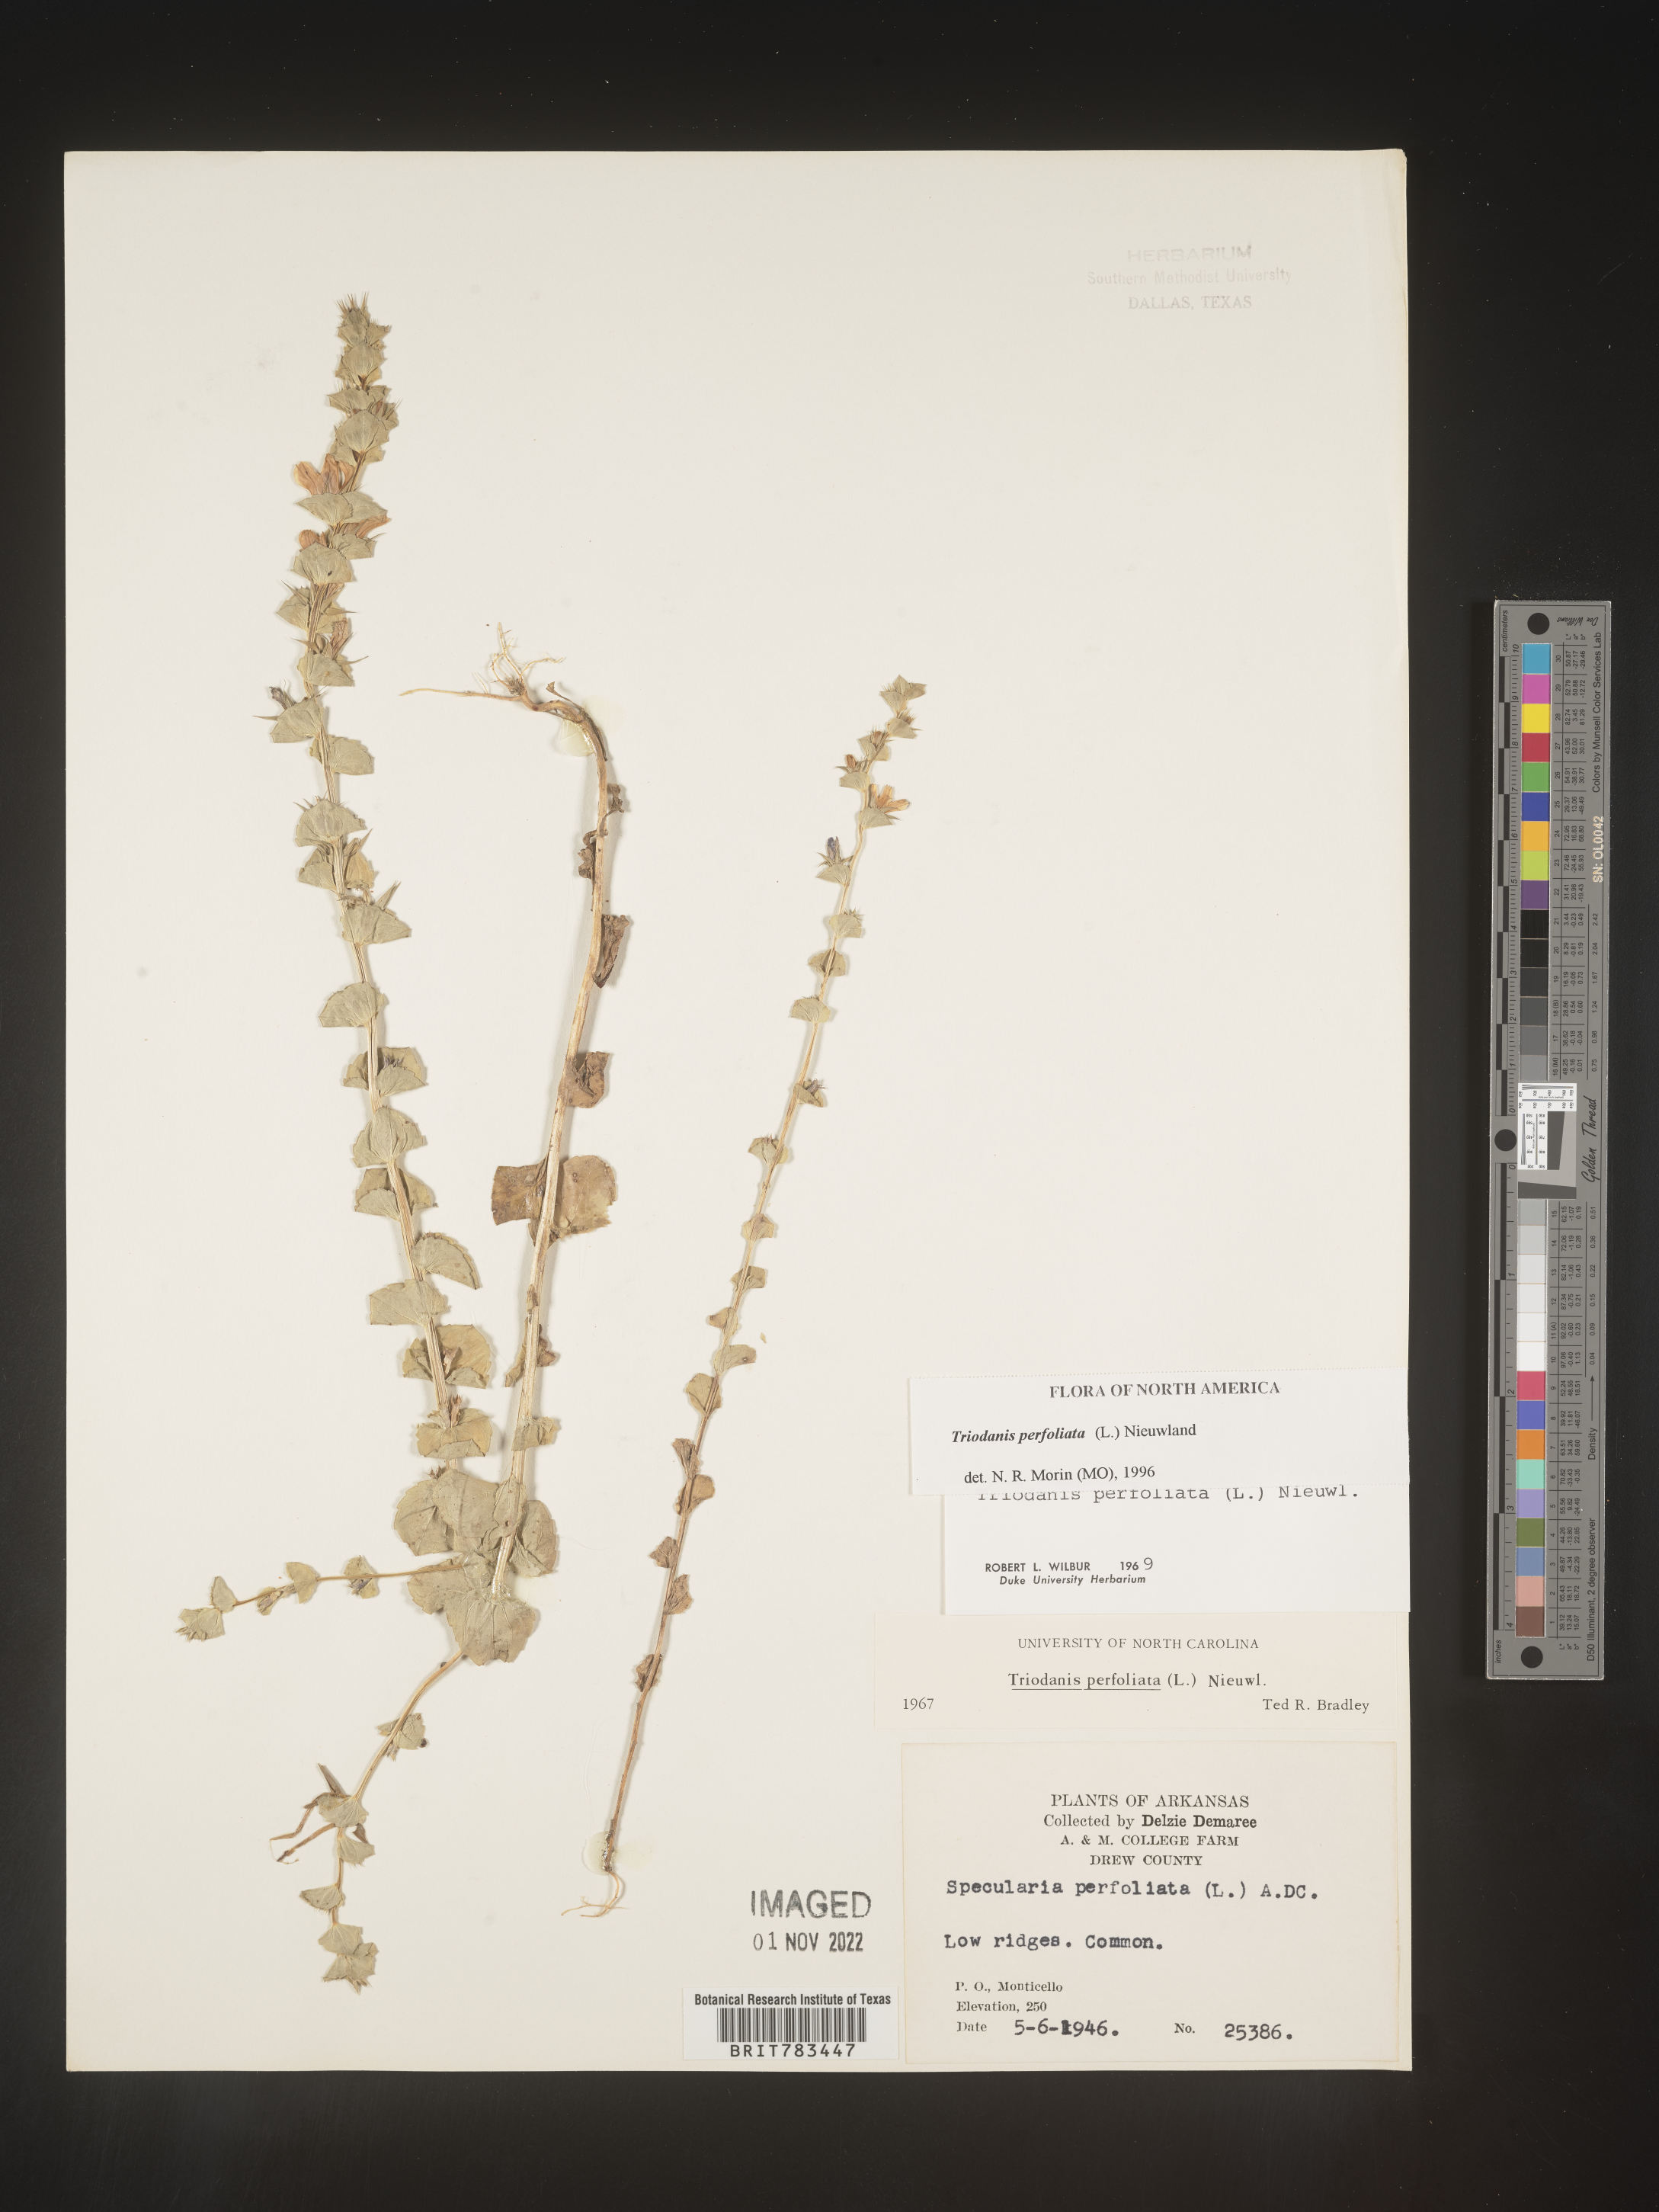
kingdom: Plantae
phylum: Tracheophyta
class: Magnoliopsida
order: Asterales
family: Campanulaceae
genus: Triodanis
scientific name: Triodanis perfoliata
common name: Clasping venus' looking-glass
